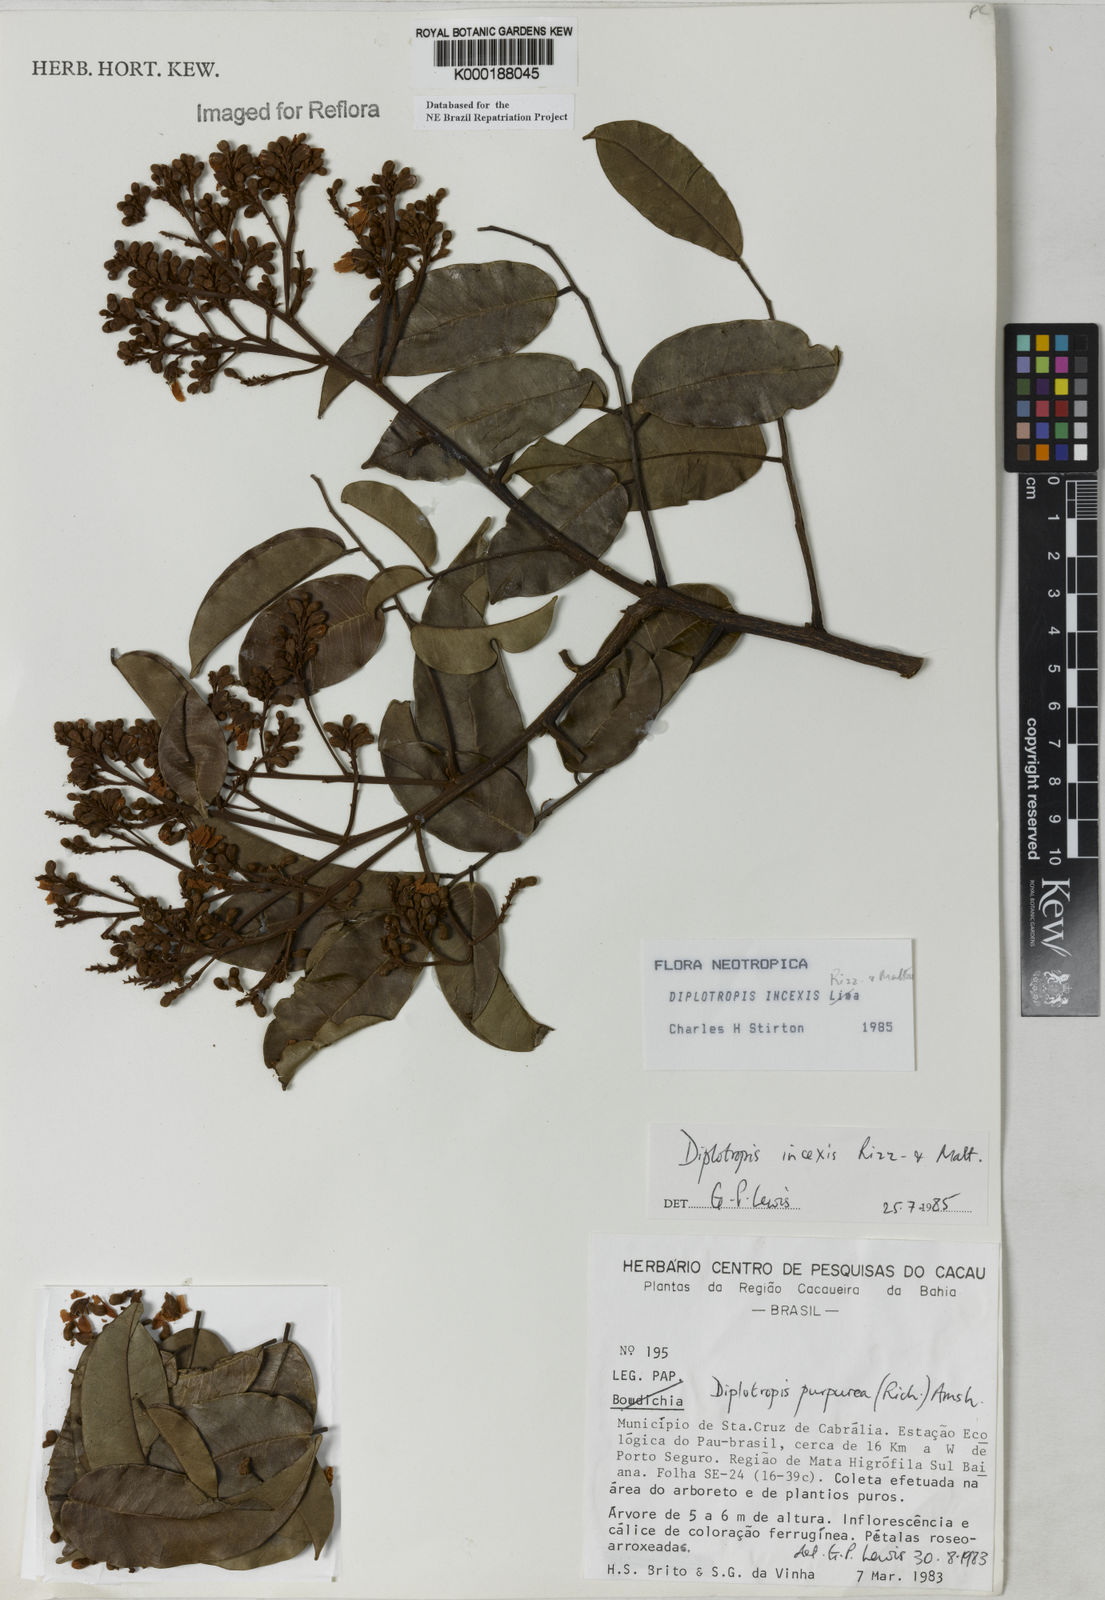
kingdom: Plantae
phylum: Tracheophyta
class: Magnoliopsida
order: Fabales
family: Fabaceae
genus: Diplotropis
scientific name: Diplotropis incexis
